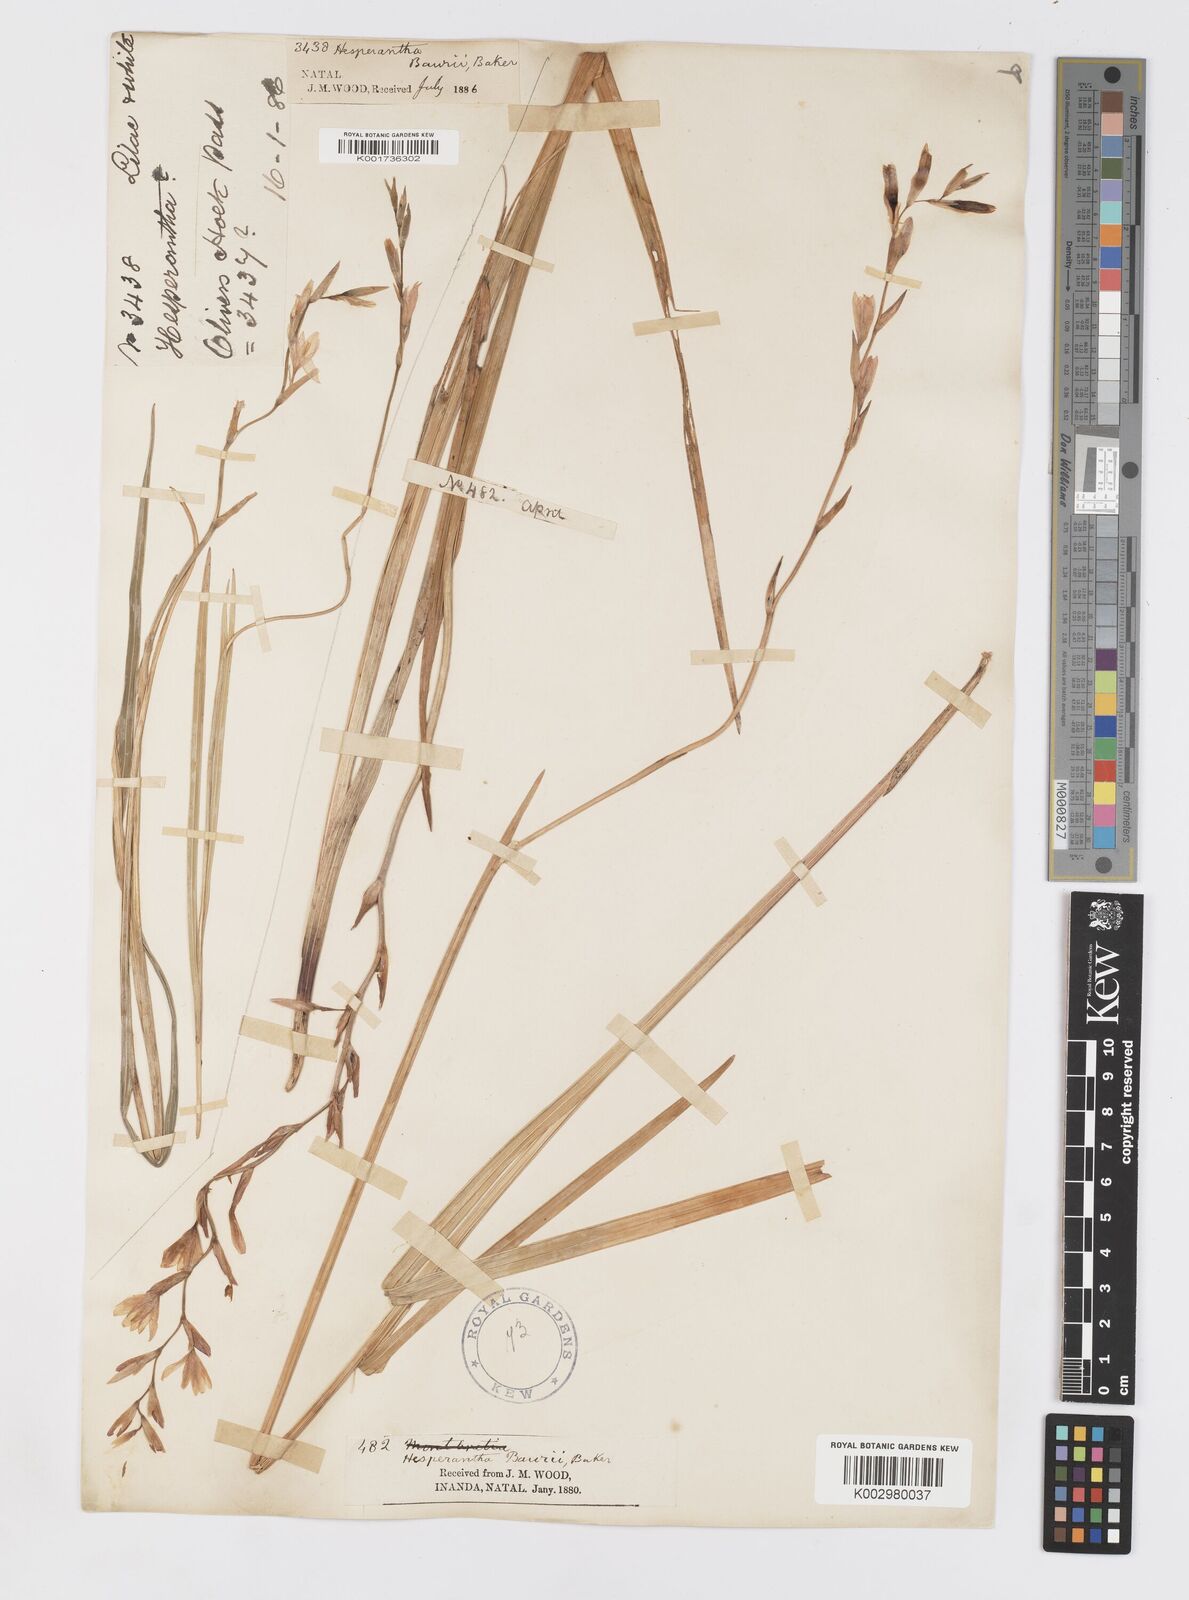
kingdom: Plantae
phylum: Tracheophyta
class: Liliopsida
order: Asparagales
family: Iridaceae
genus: Hesperantha
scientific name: Hesperantha baurii
